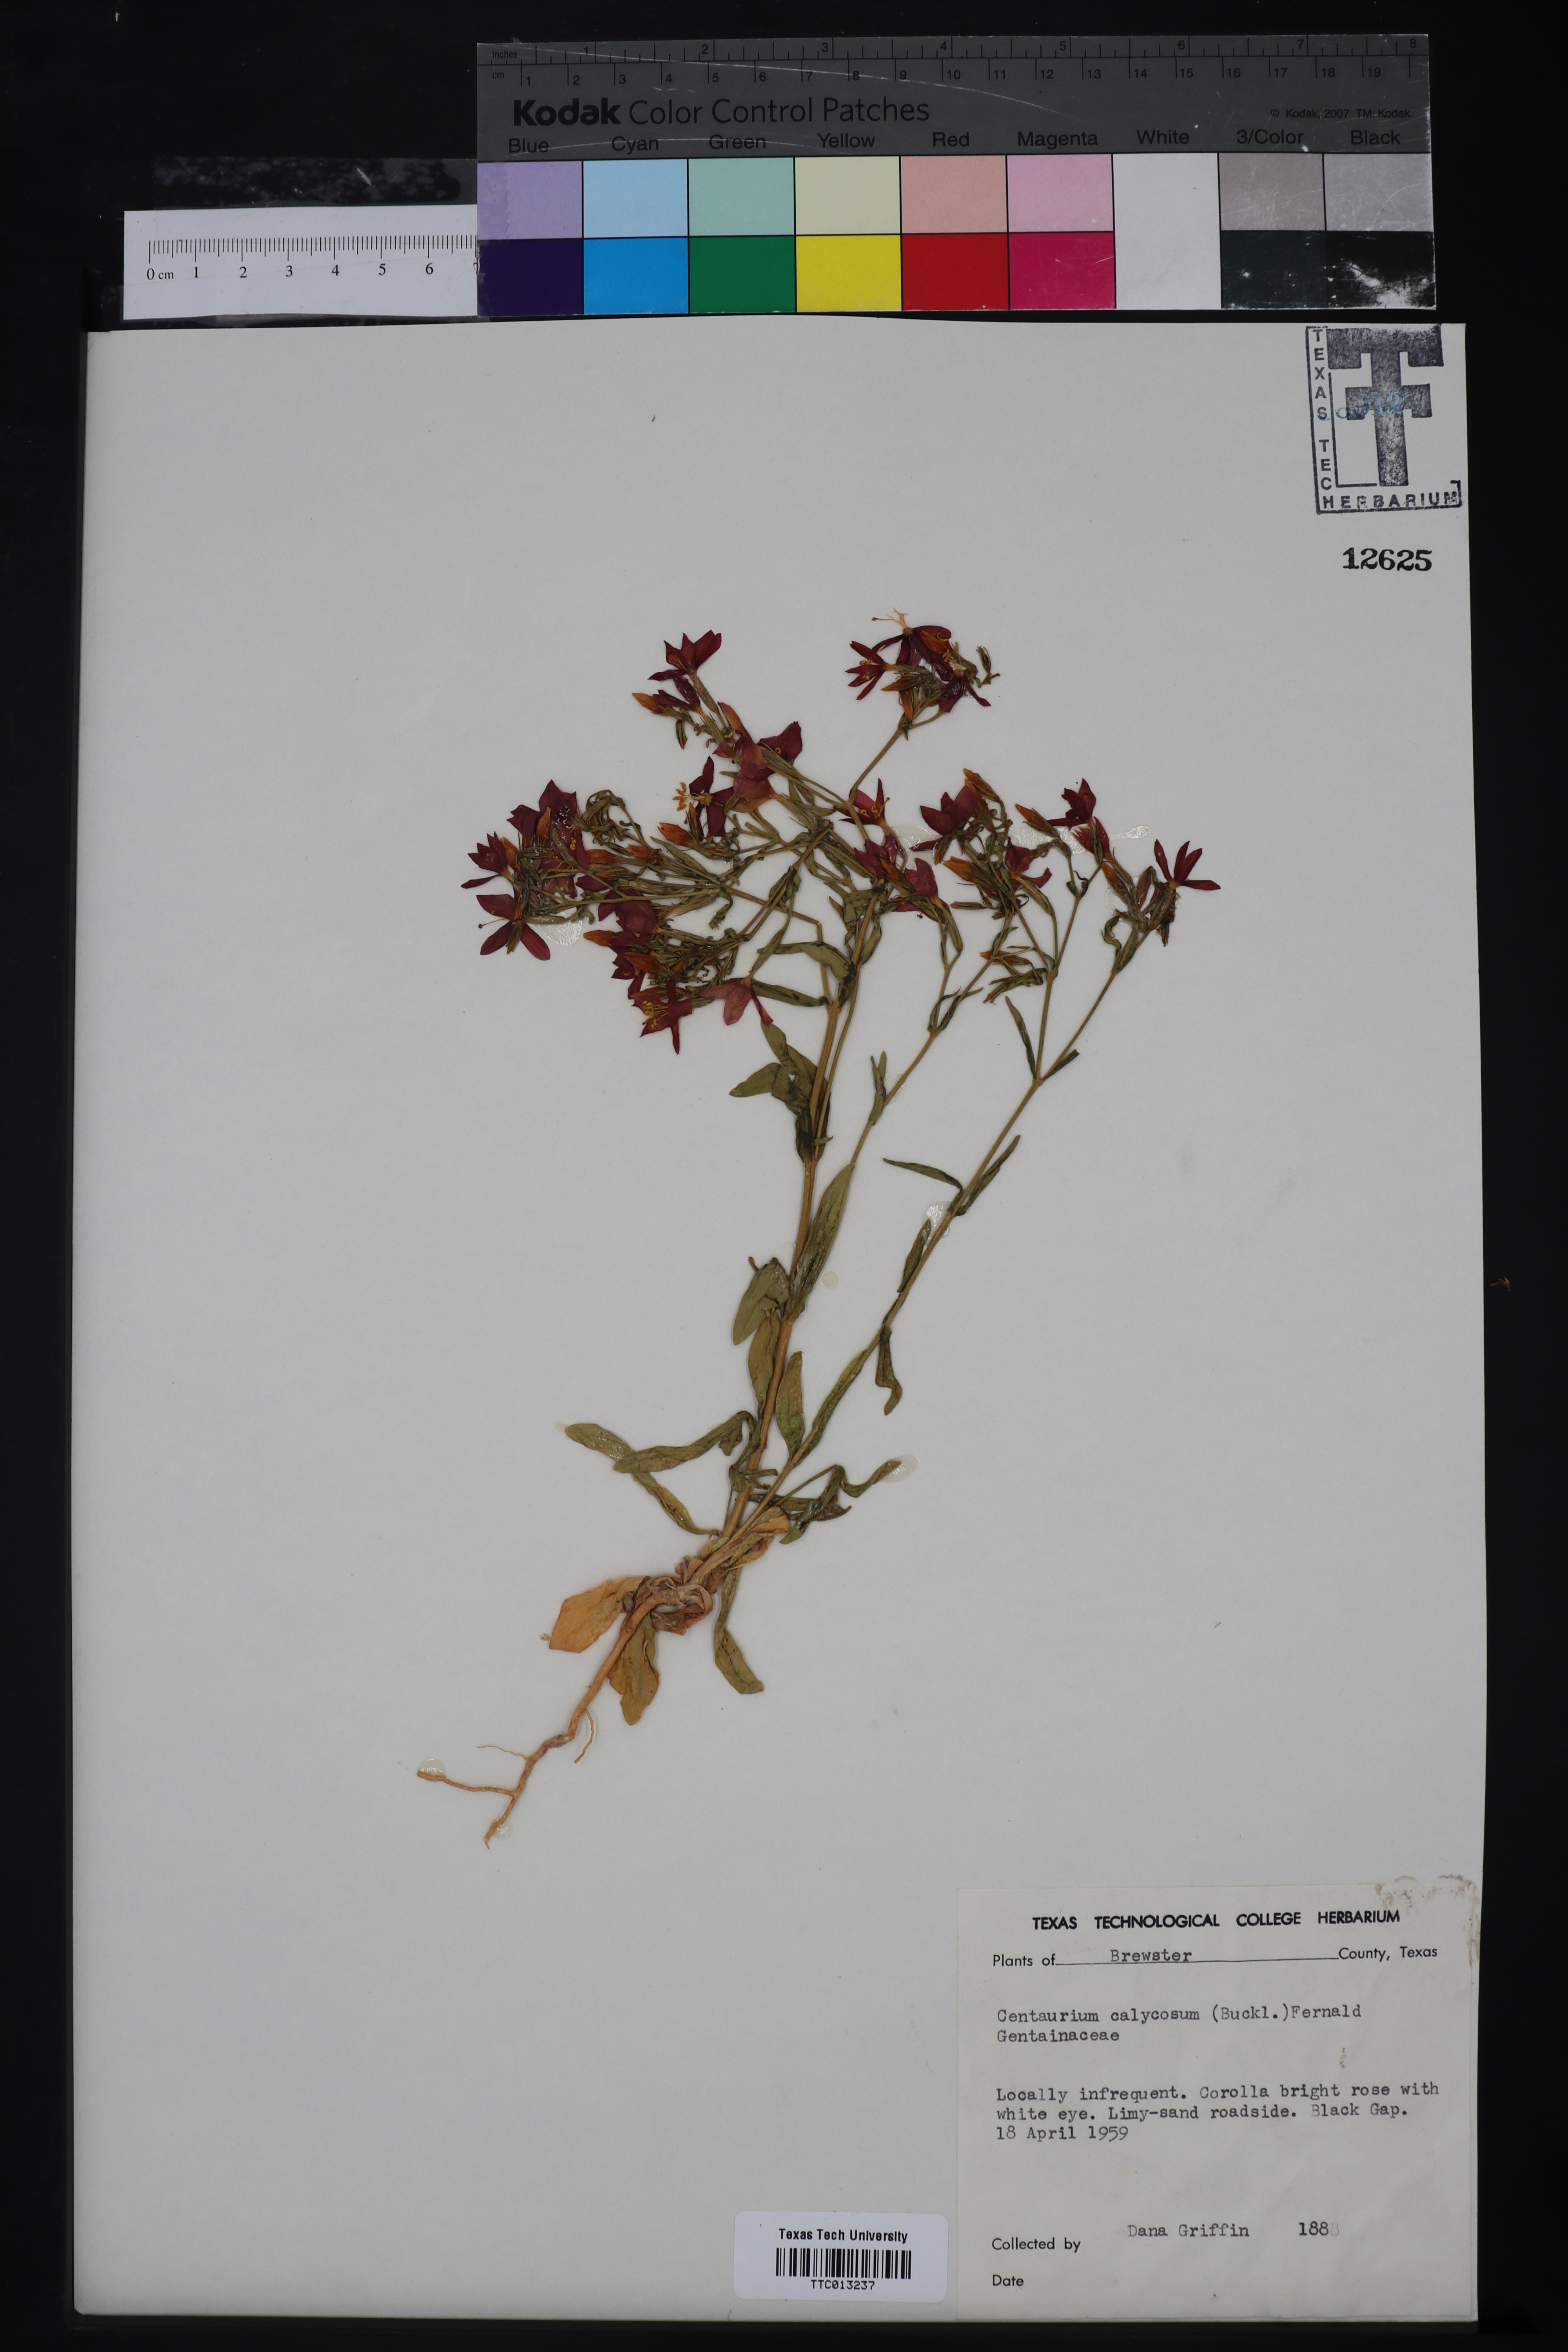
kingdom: Plantae
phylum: Tracheophyta
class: Magnoliopsida
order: Gentianales
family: Gentianaceae
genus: Zeltnera
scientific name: Zeltnera calycosa
